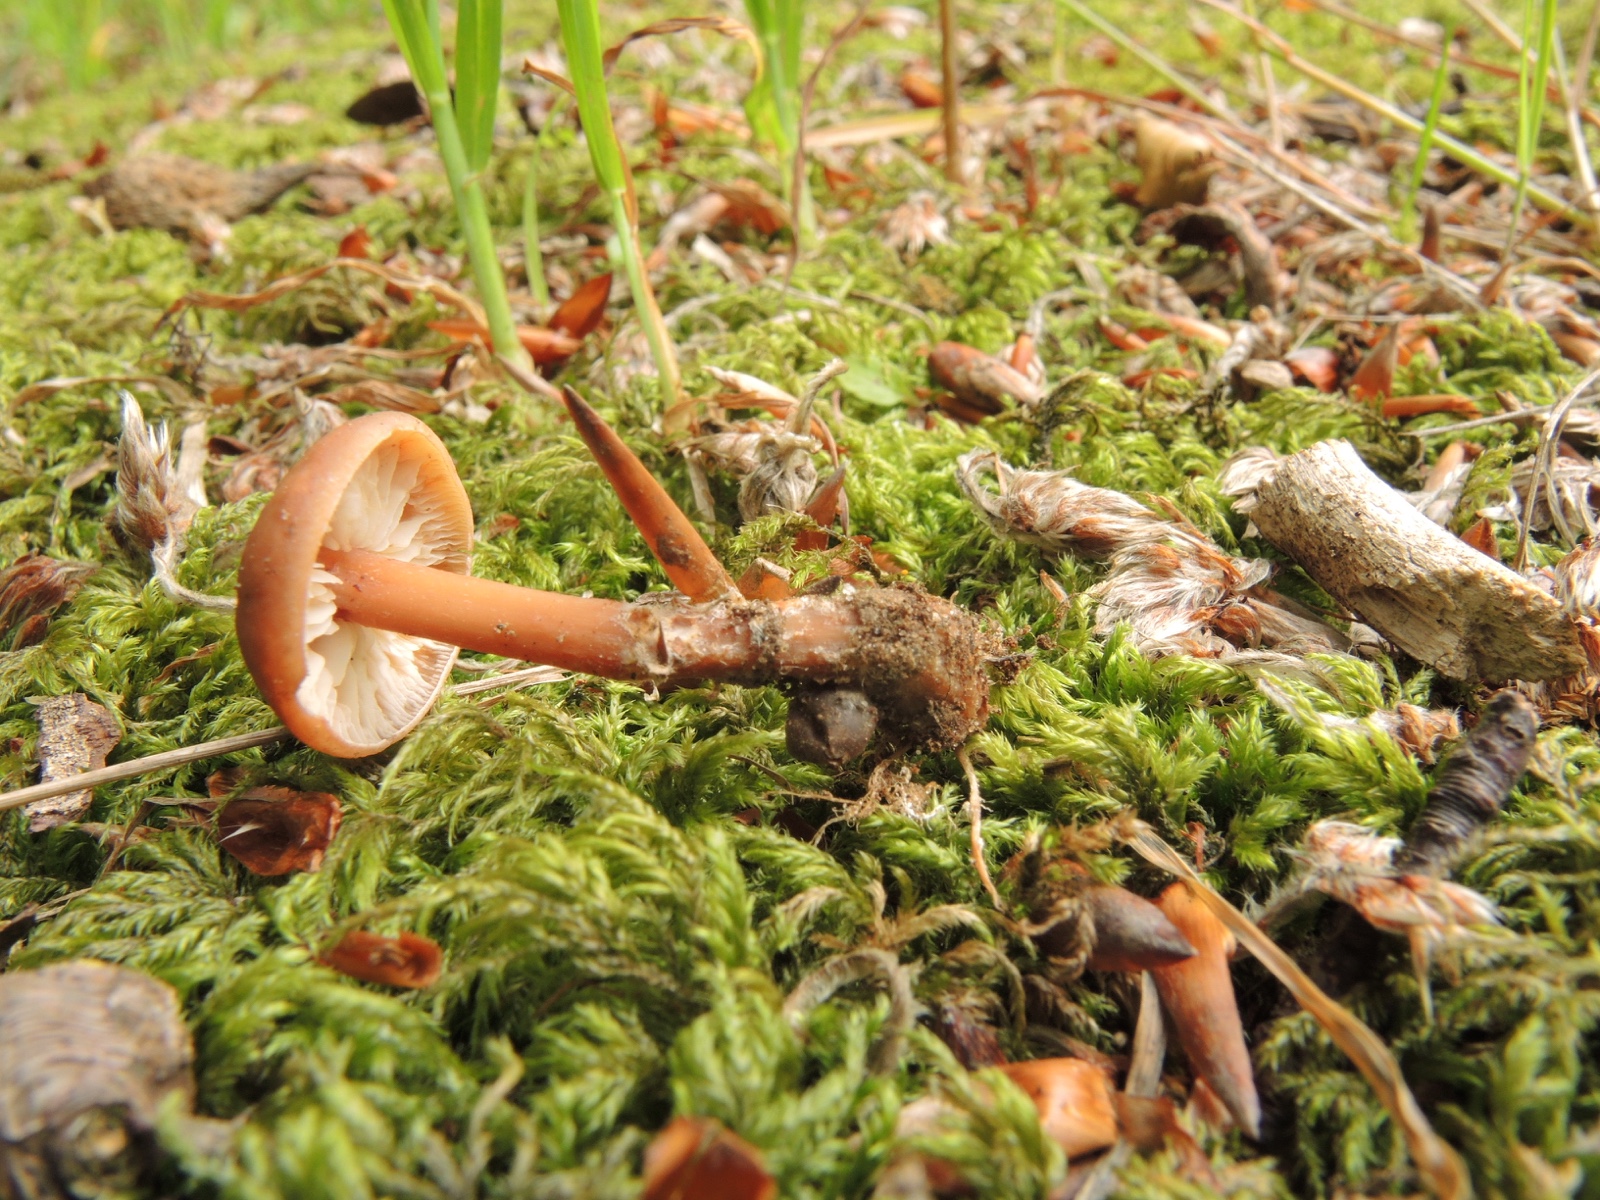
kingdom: Fungi
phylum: Basidiomycota
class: Agaricomycetes
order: Agaricales
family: Omphalotaceae
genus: Gymnopus
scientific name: Gymnopus ocior
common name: mørk fladhat
